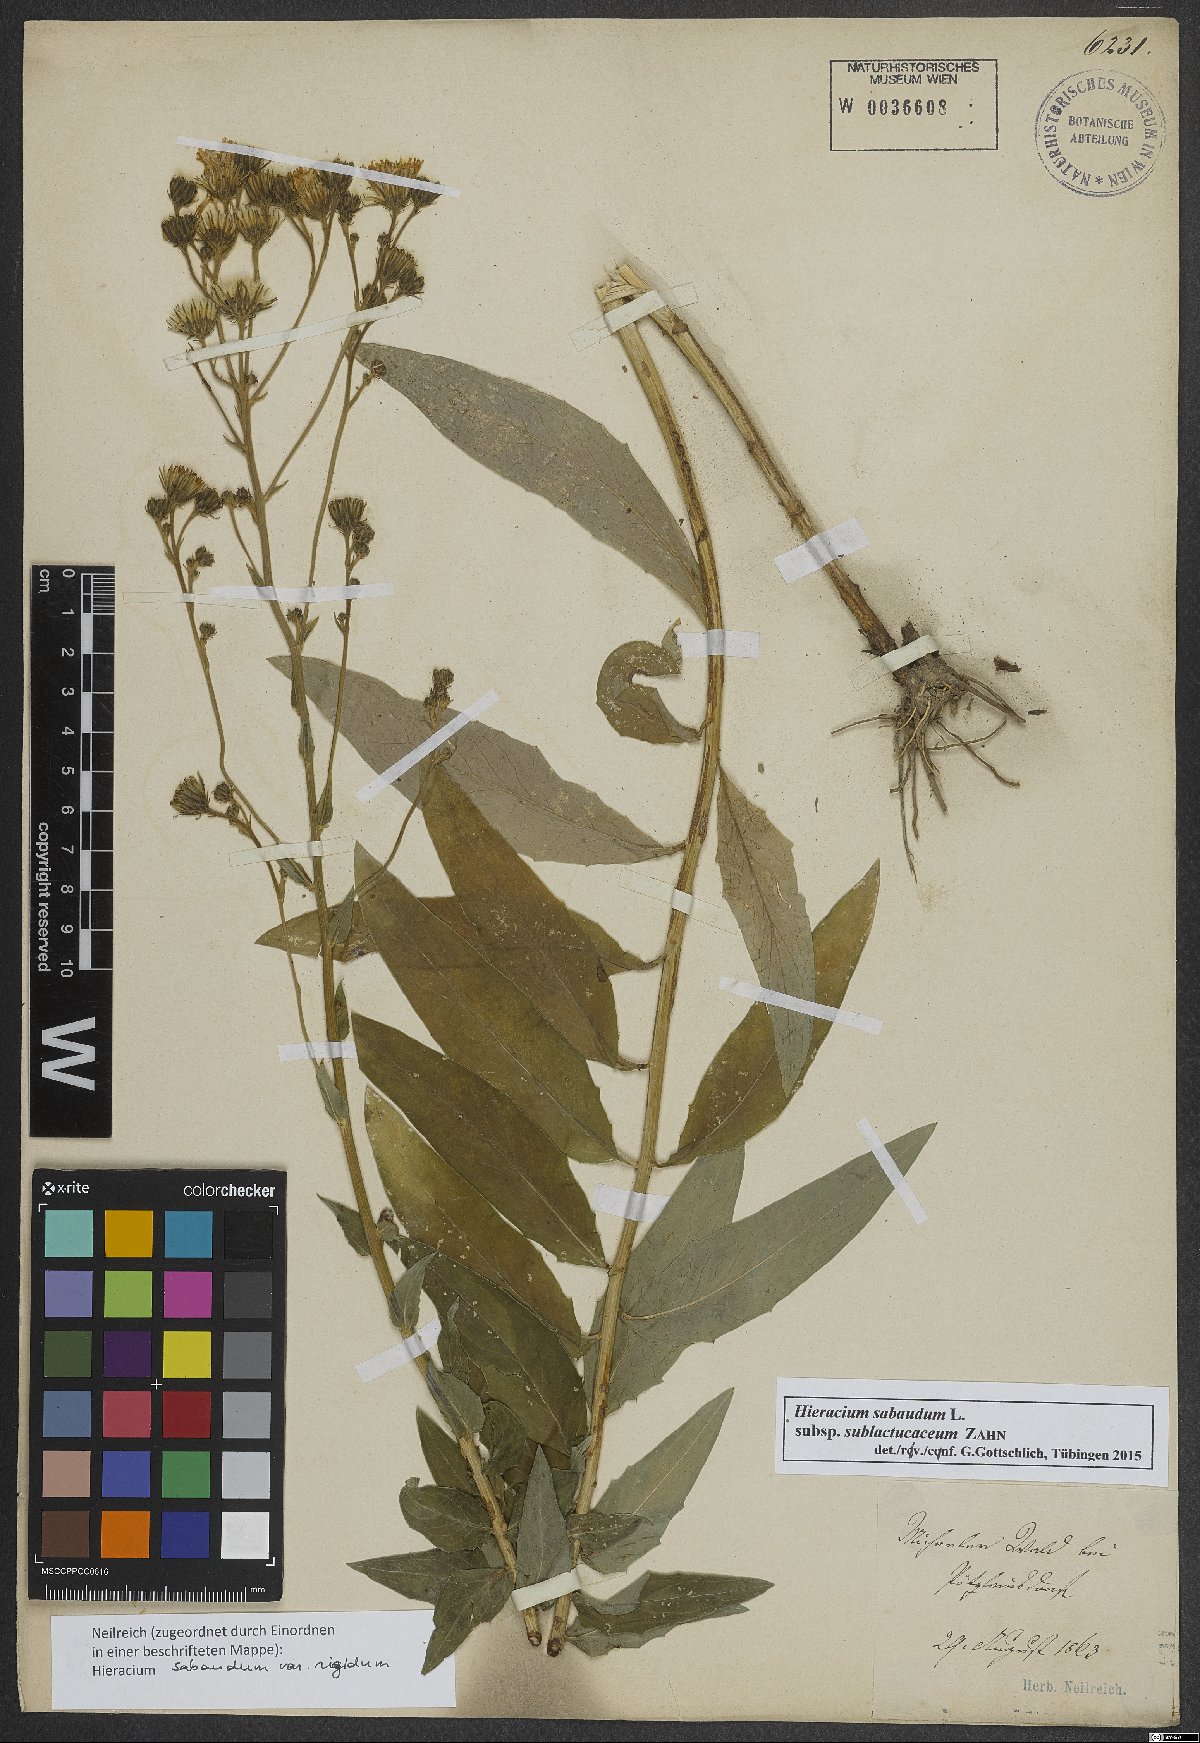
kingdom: Plantae
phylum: Tracheophyta
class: Magnoliopsida
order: Asterales
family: Asteraceae
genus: Hieracium
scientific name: Hieracium sabaudum
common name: New england hawkweed
